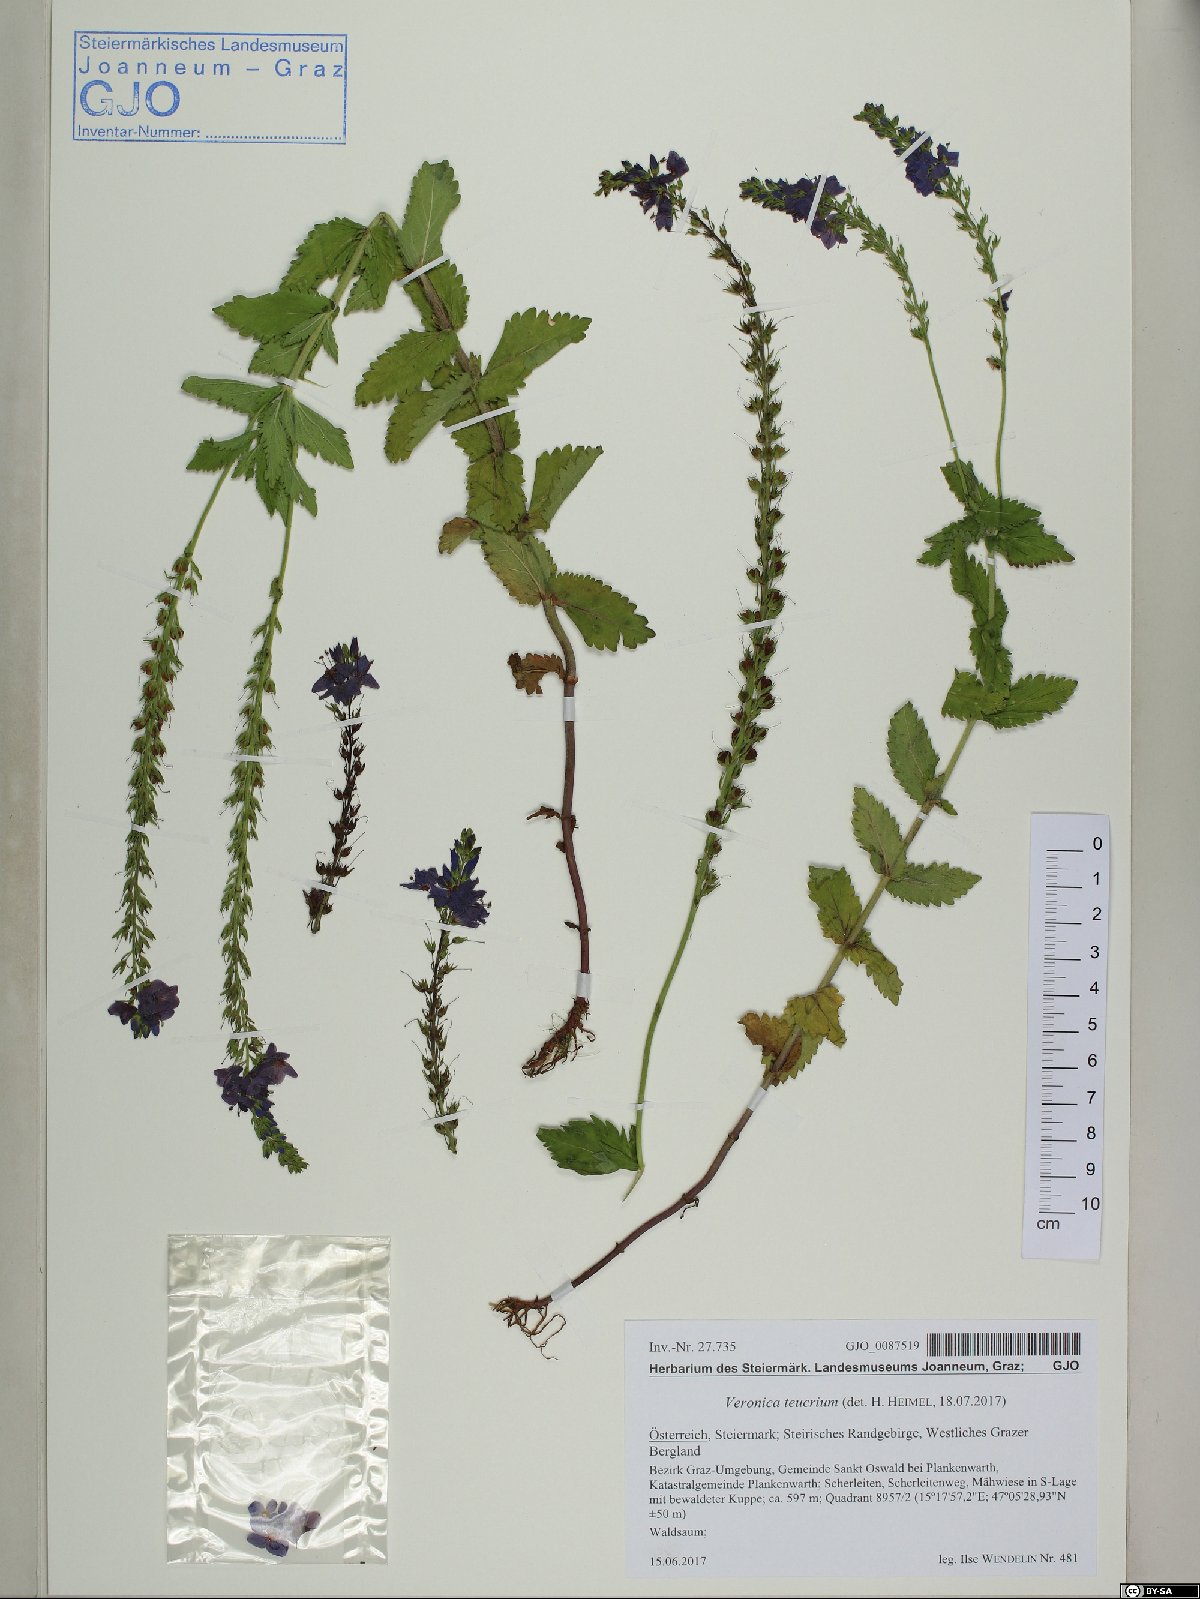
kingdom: Plantae
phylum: Tracheophyta
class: Magnoliopsida
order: Lamiales
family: Plantaginaceae
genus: Veronica
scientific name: Veronica teucrium
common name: Large speedwell
